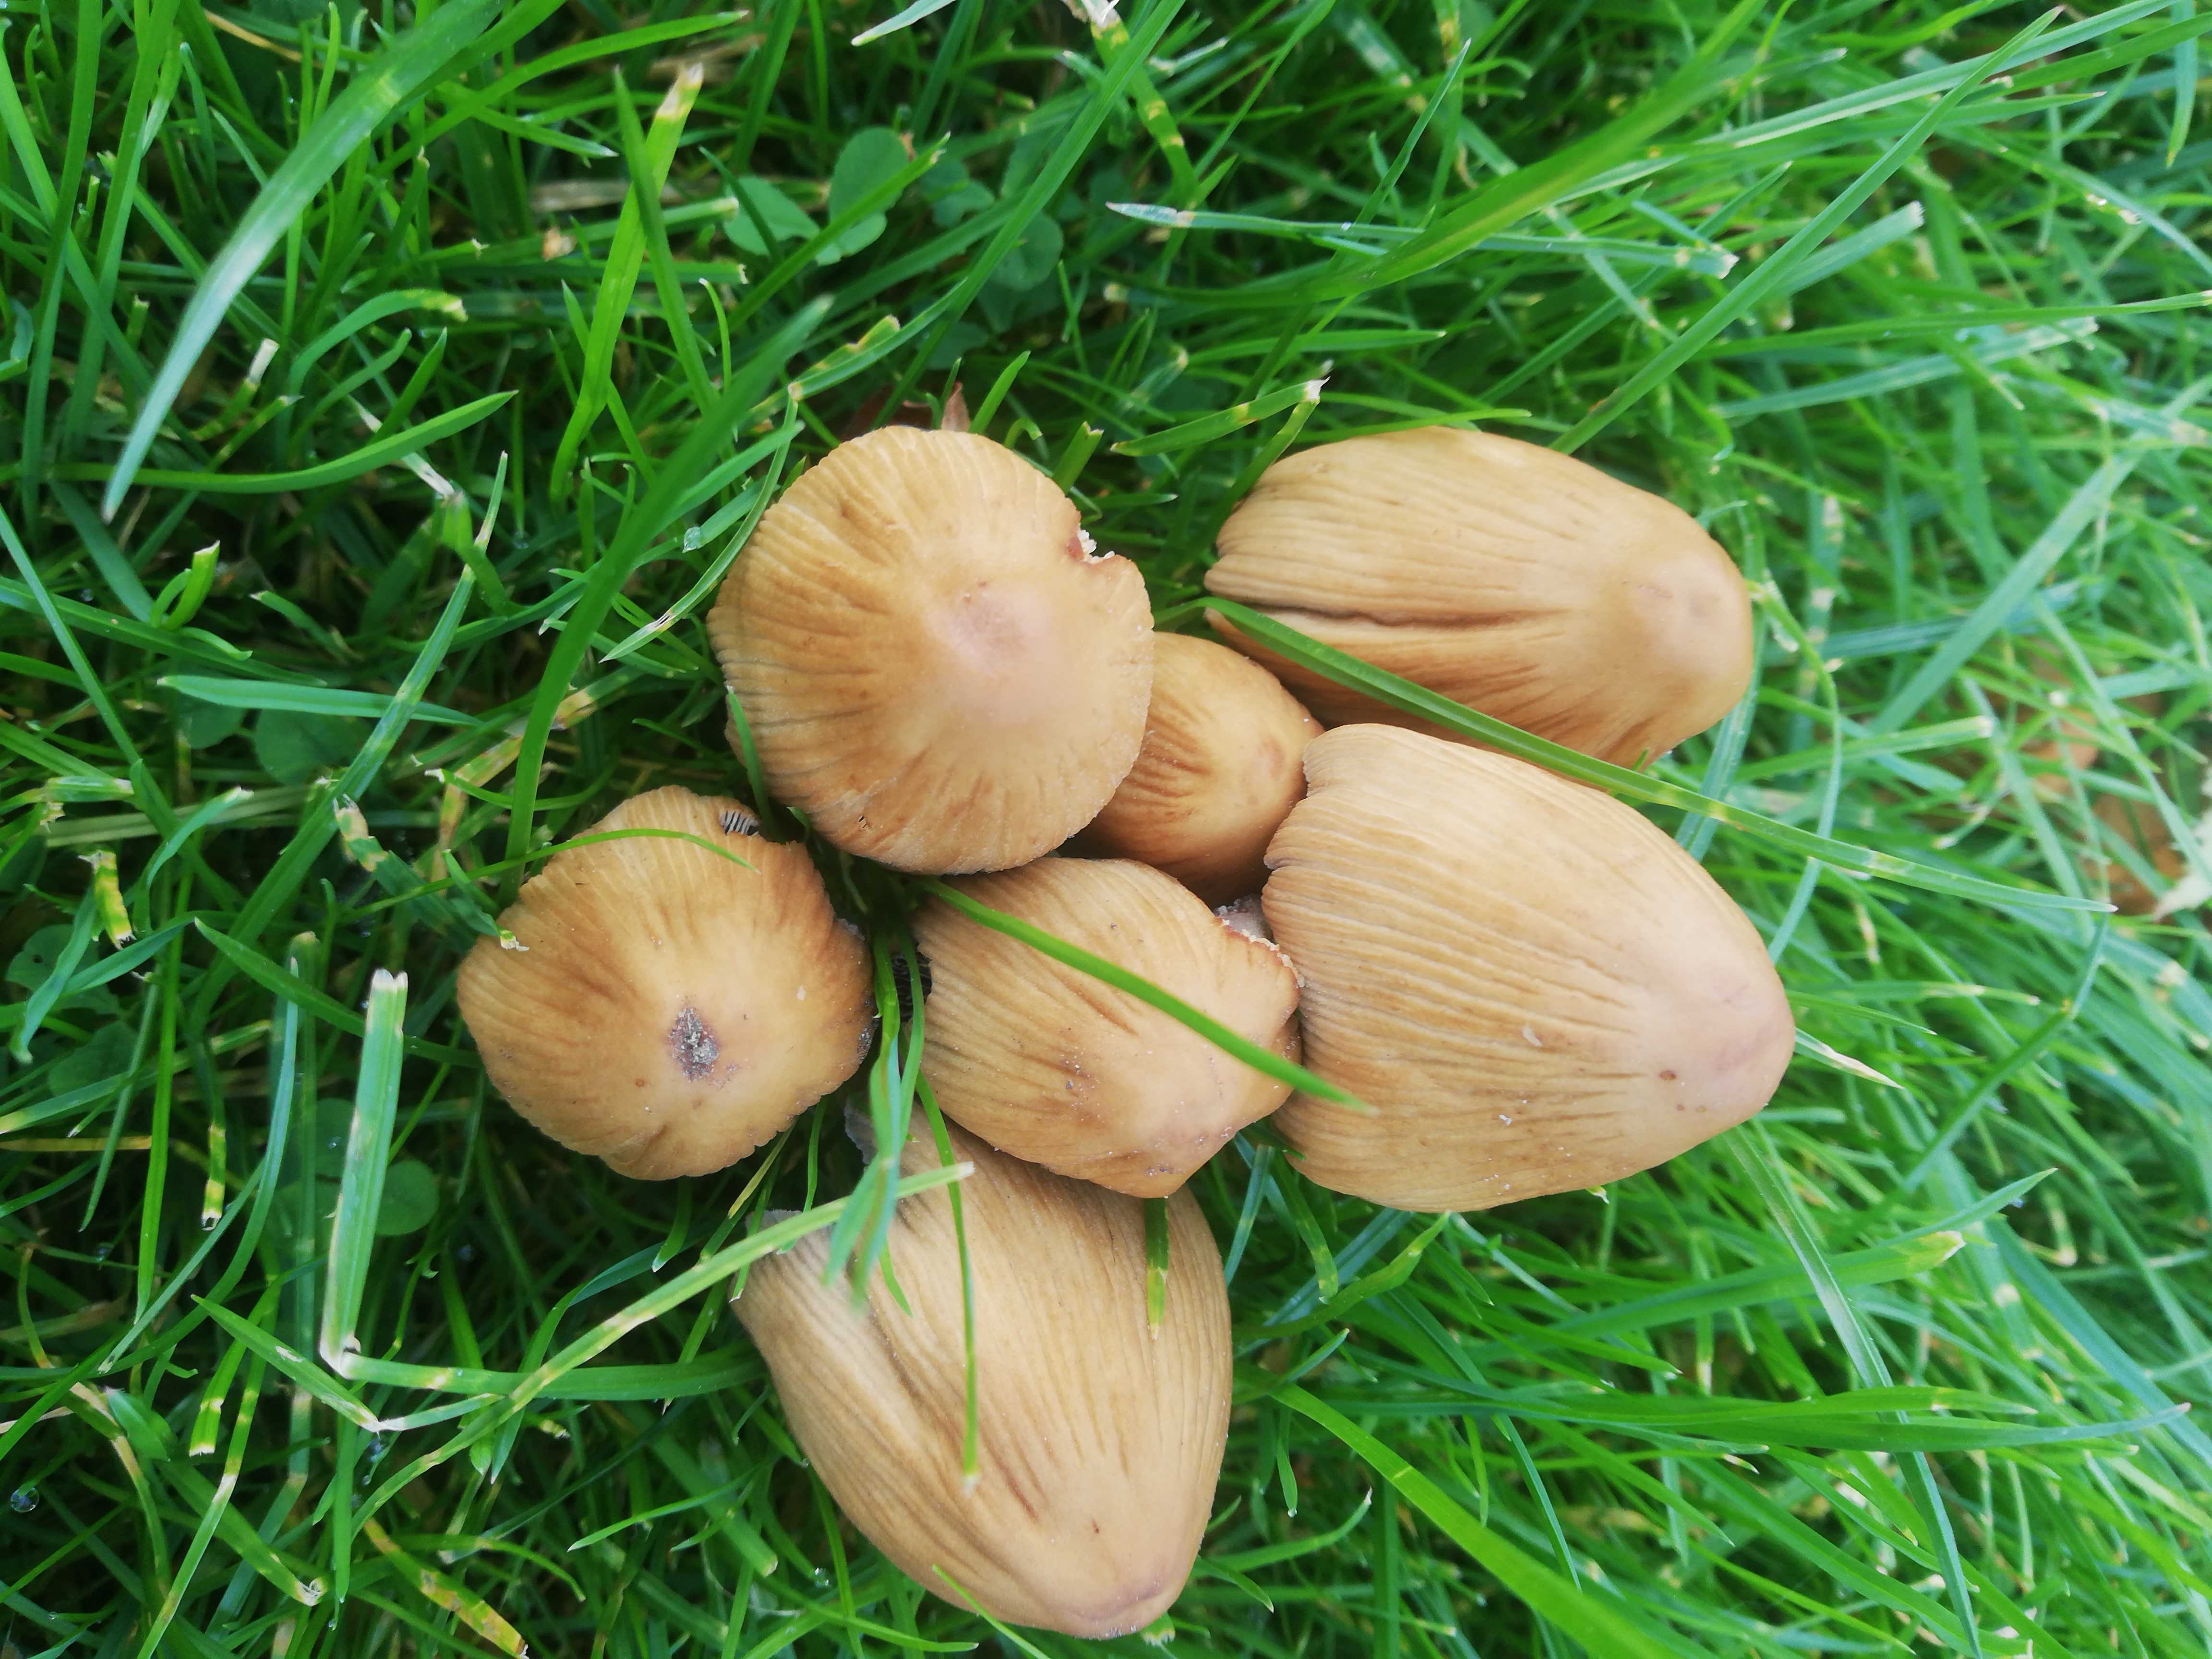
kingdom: Fungi
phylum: Basidiomycota
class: Agaricomycetes
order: Agaricales
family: Psathyrellaceae
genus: Coprinellus
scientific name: Coprinellus micaceus
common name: glimmer-blækhat
